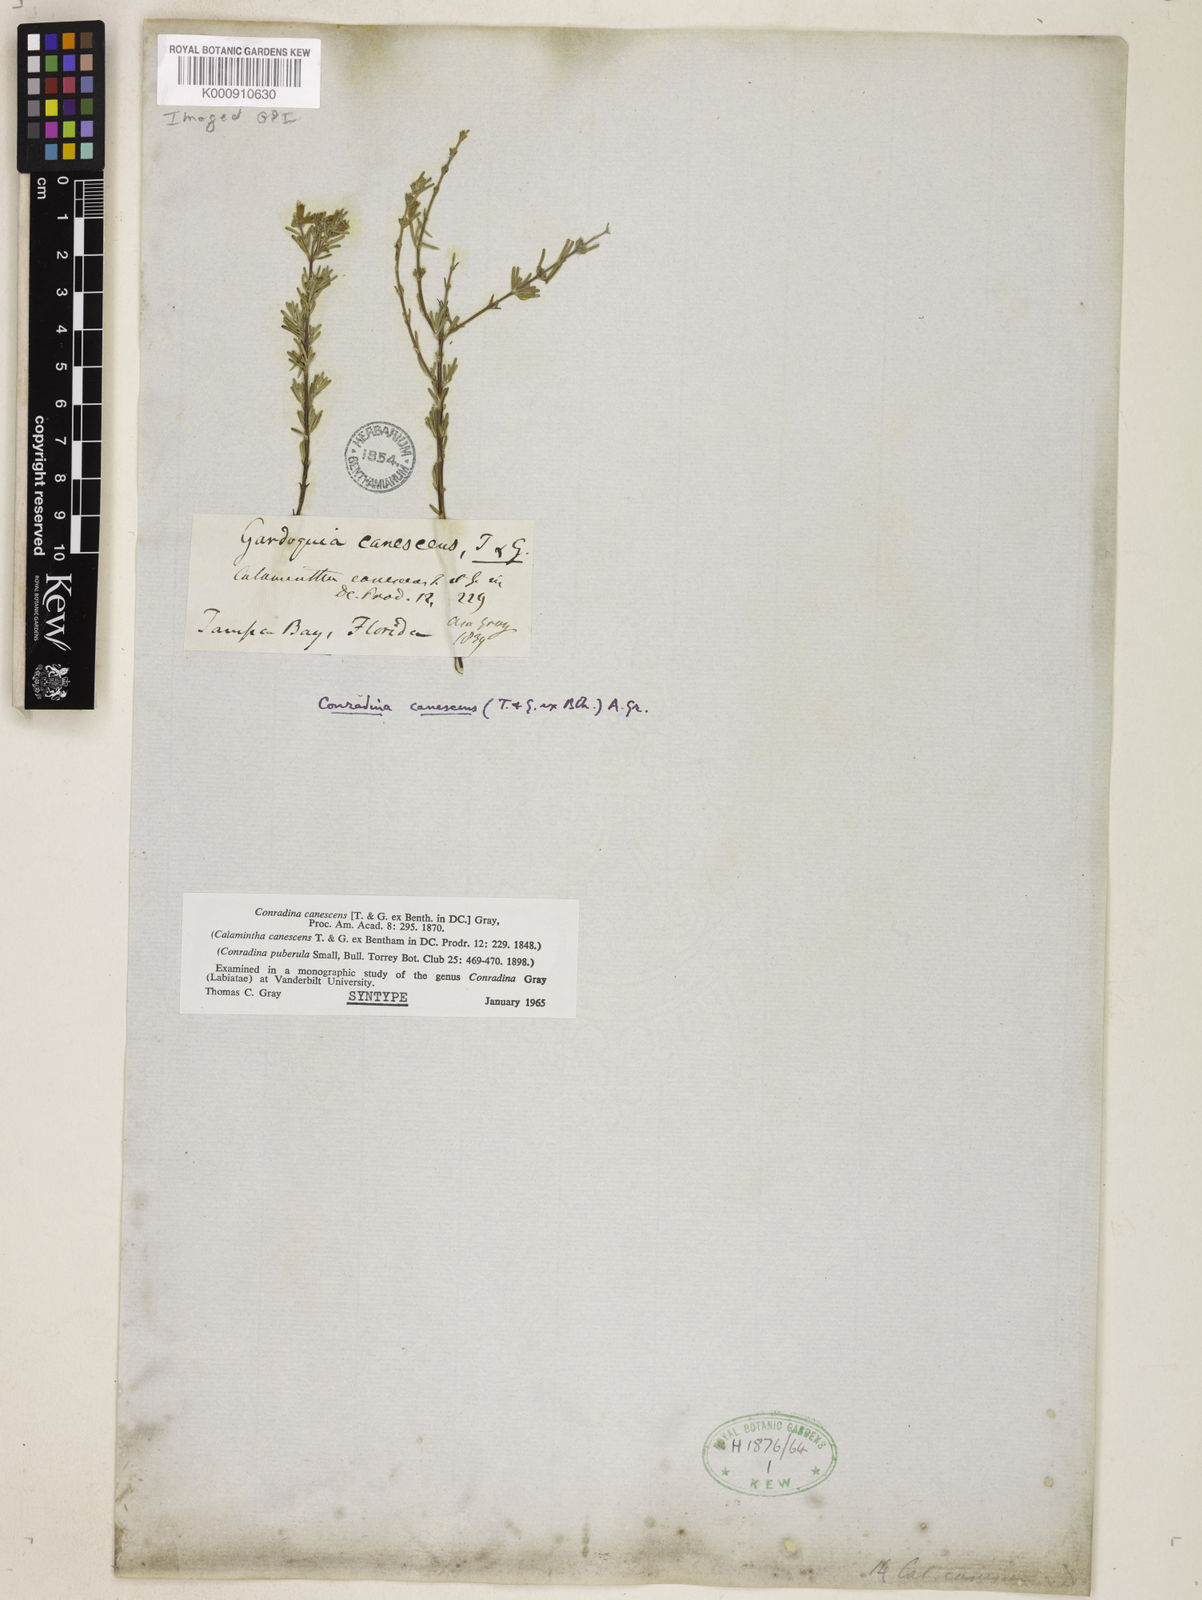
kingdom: Plantae
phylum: Tracheophyta
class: Magnoliopsida
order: Lamiales
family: Lamiaceae
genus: Conradina
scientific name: Conradina canescens
